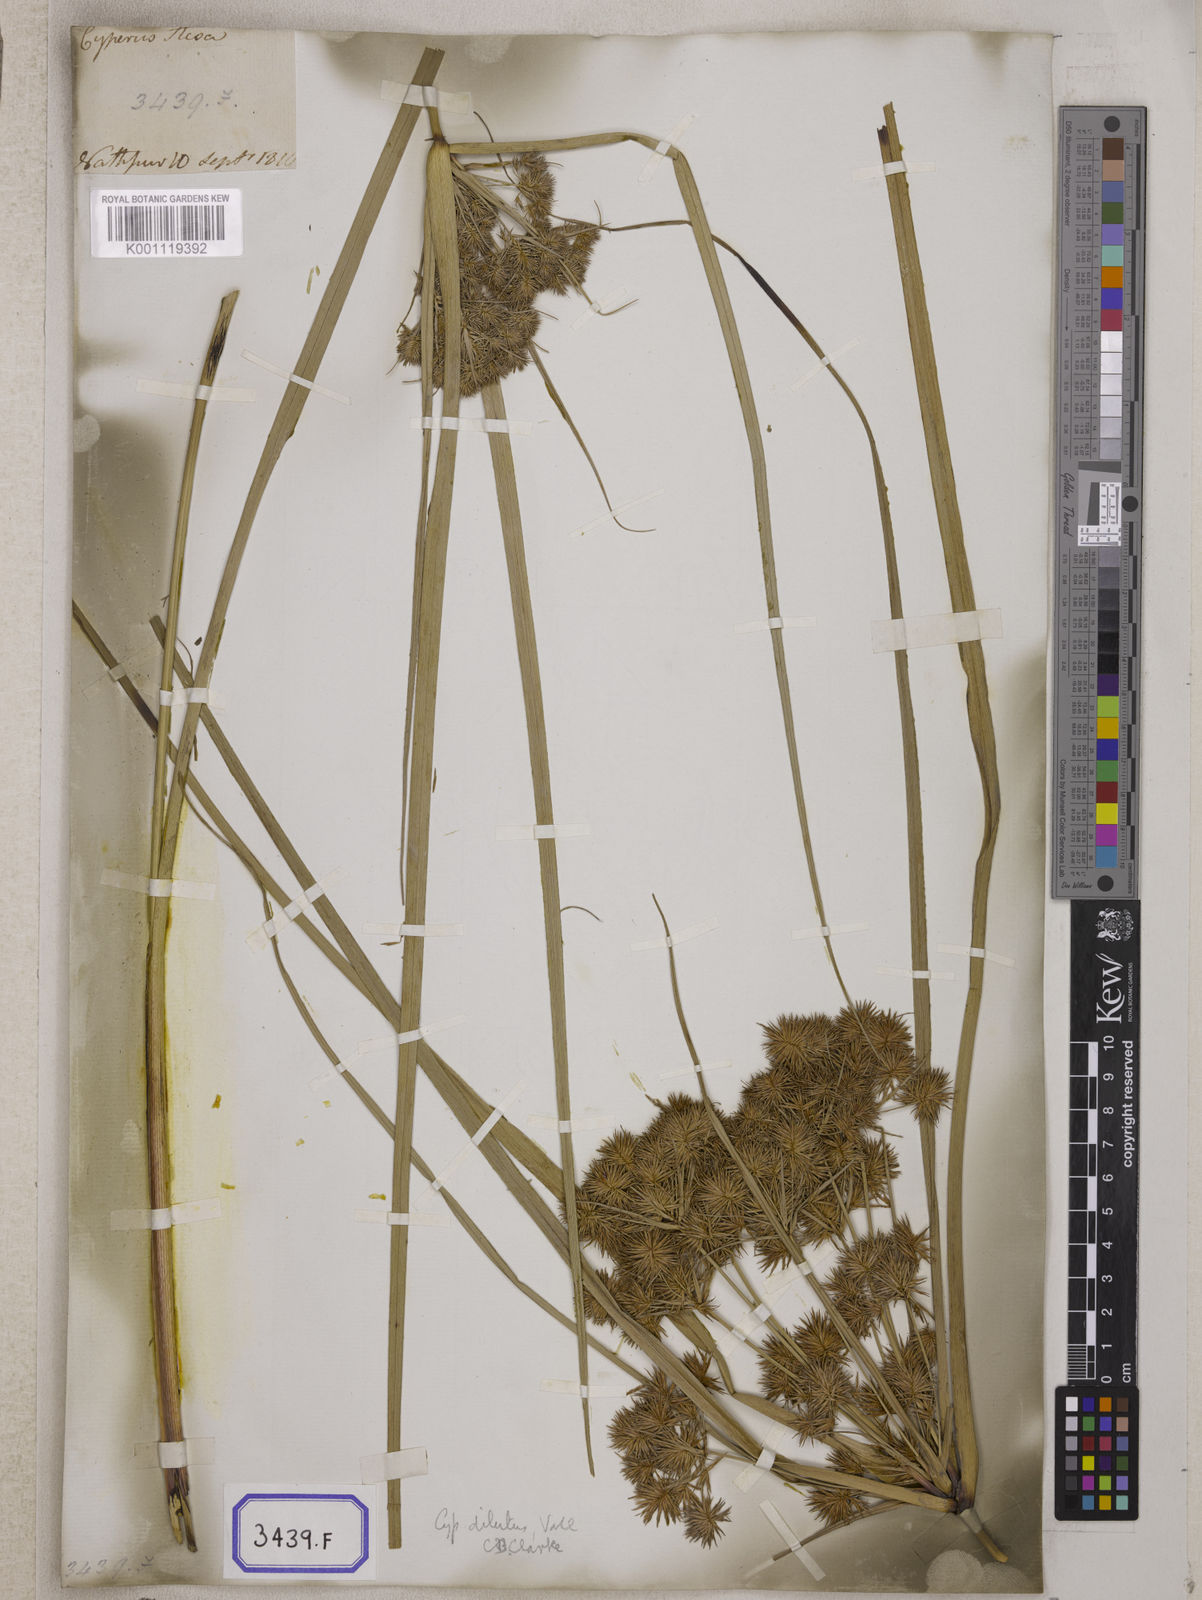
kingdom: Plantae
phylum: Tracheophyta
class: Liliopsida
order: Poales
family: Cyperaceae
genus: Mariscus
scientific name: Mariscus
